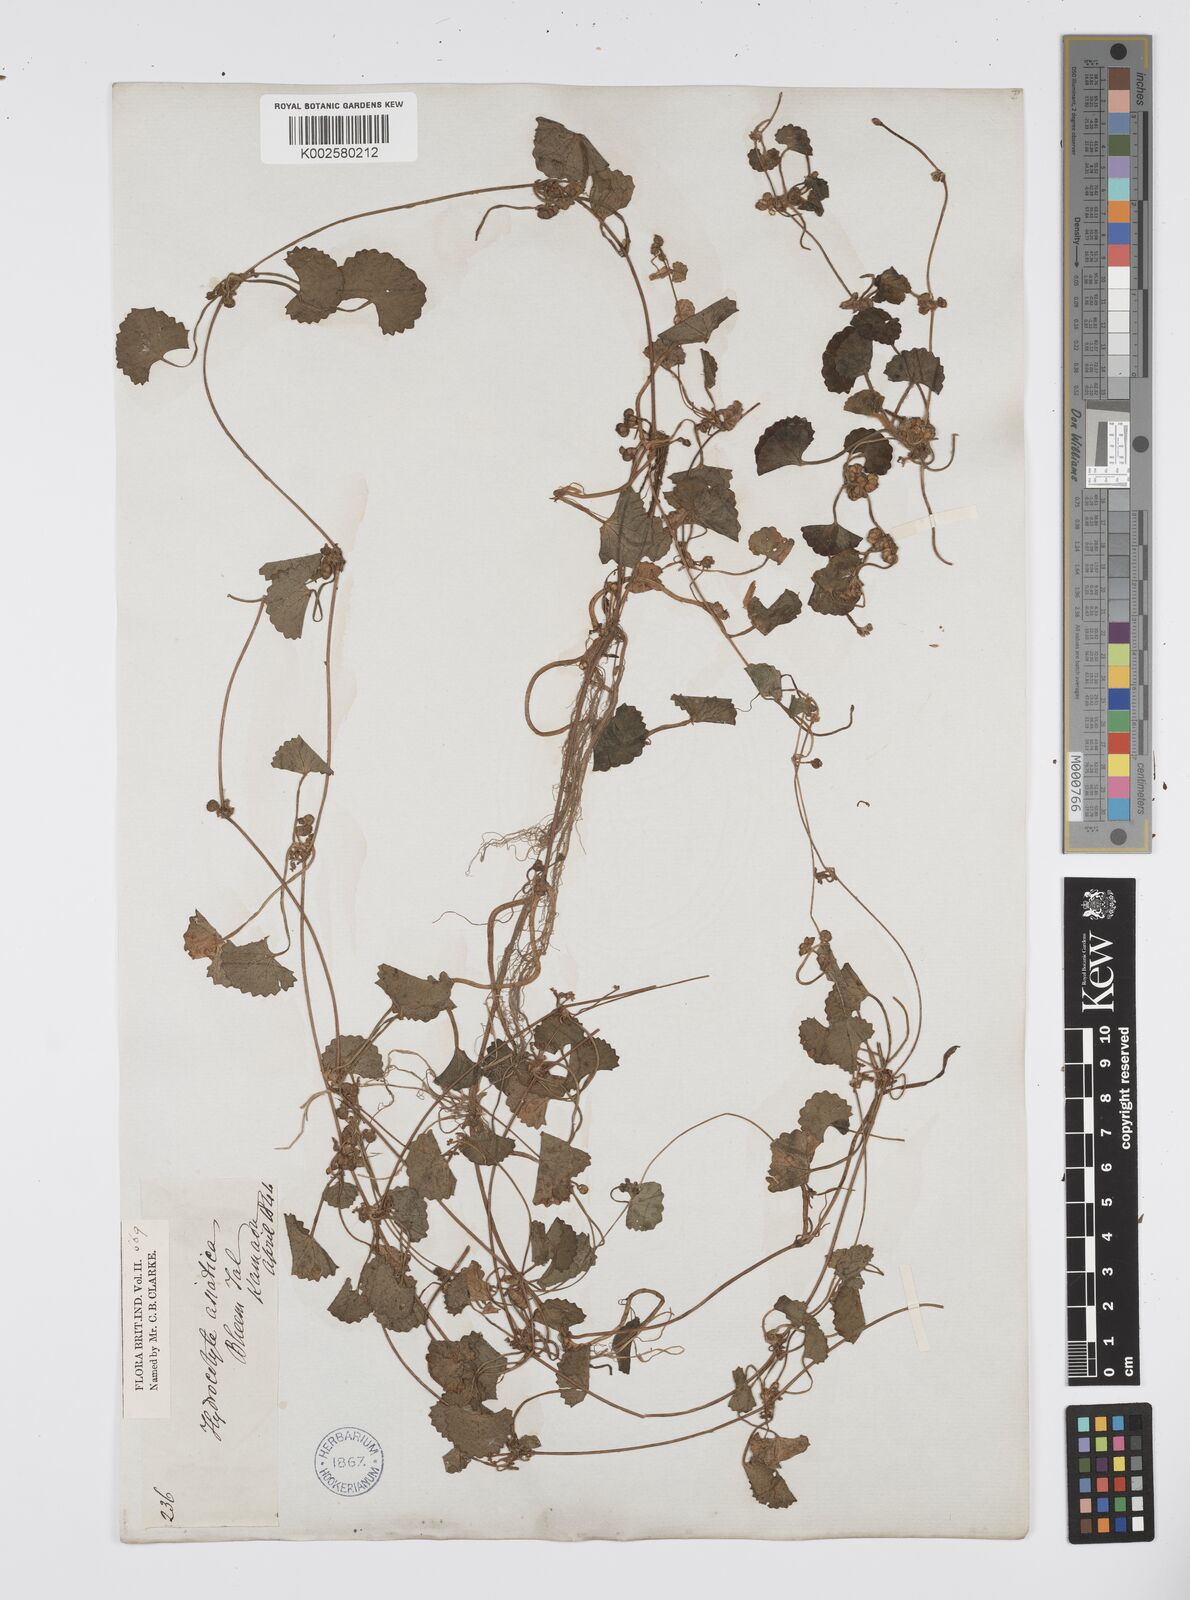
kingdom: Plantae
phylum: Tracheophyta
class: Magnoliopsida
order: Apiales
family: Apiaceae
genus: Centella
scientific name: Centella asiatica
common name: Spadeleaf
